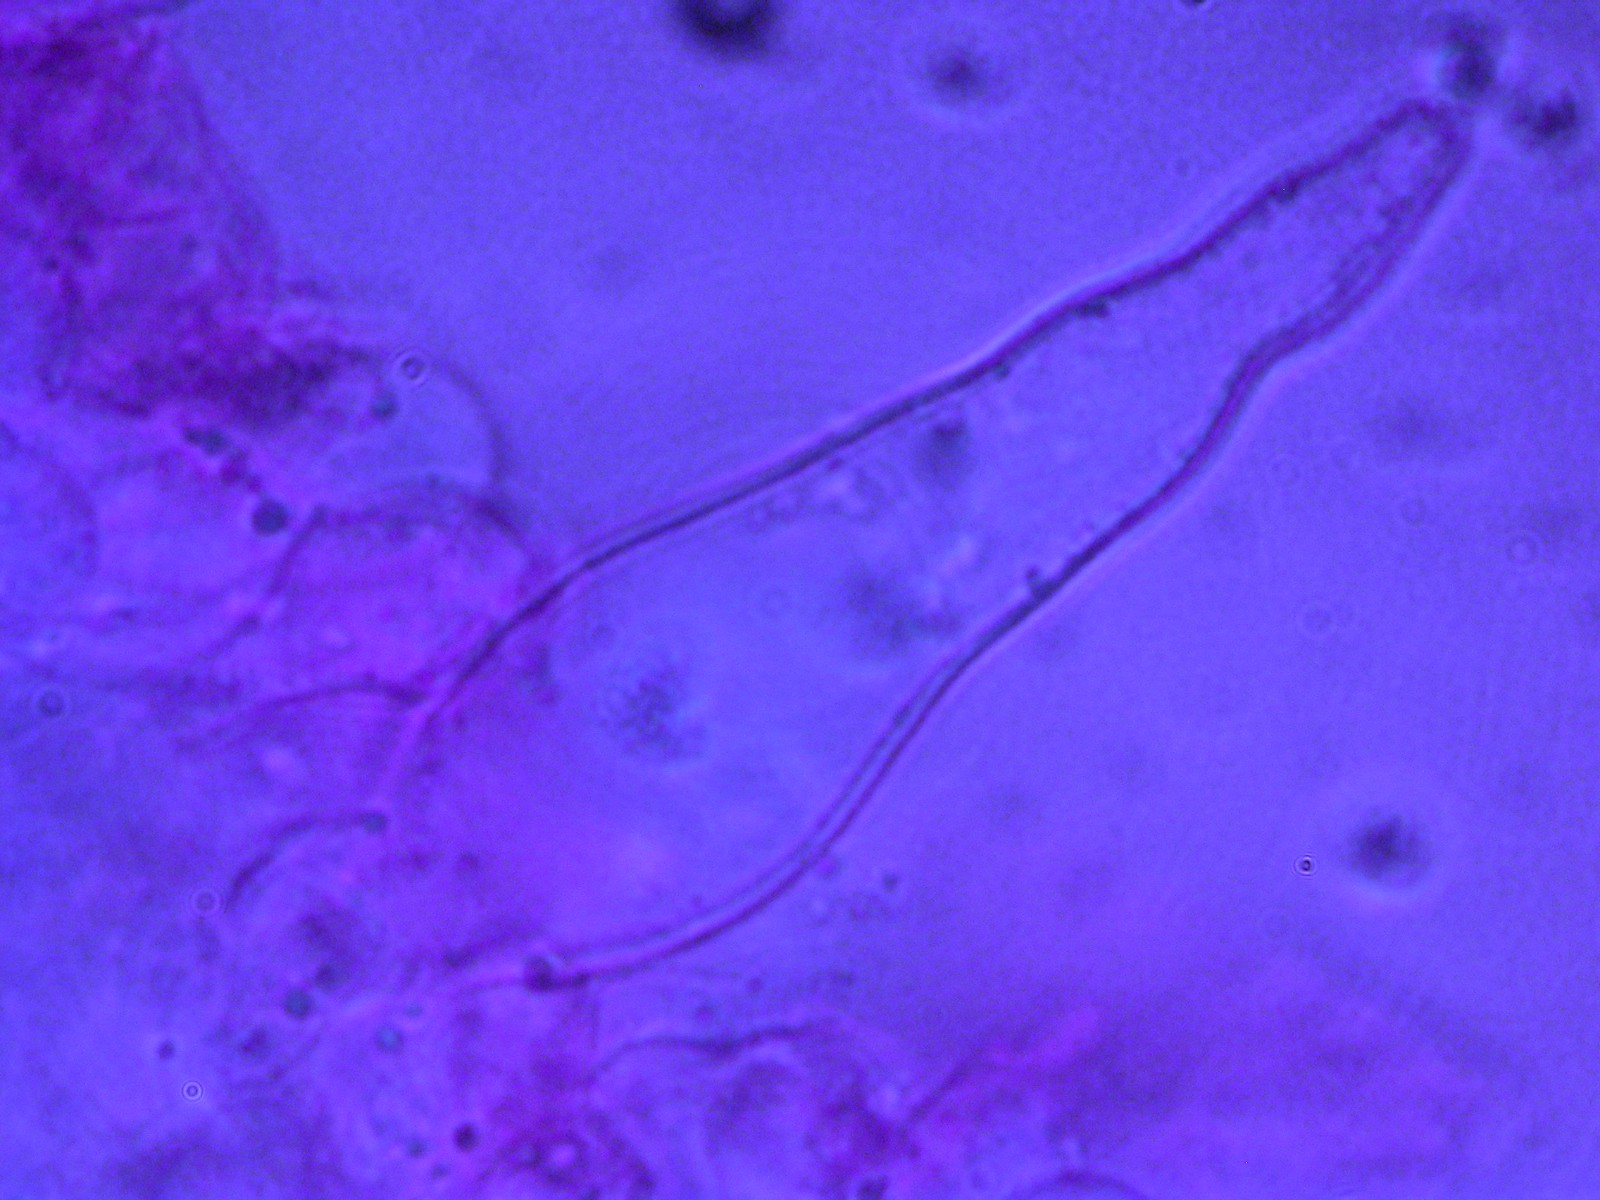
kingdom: Fungi
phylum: Basidiomycota
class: Agaricomycetes
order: Agaricales
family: Hymenogastraceae
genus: Galerina
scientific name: Galerina marginata
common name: randbæltet hjelmhat
